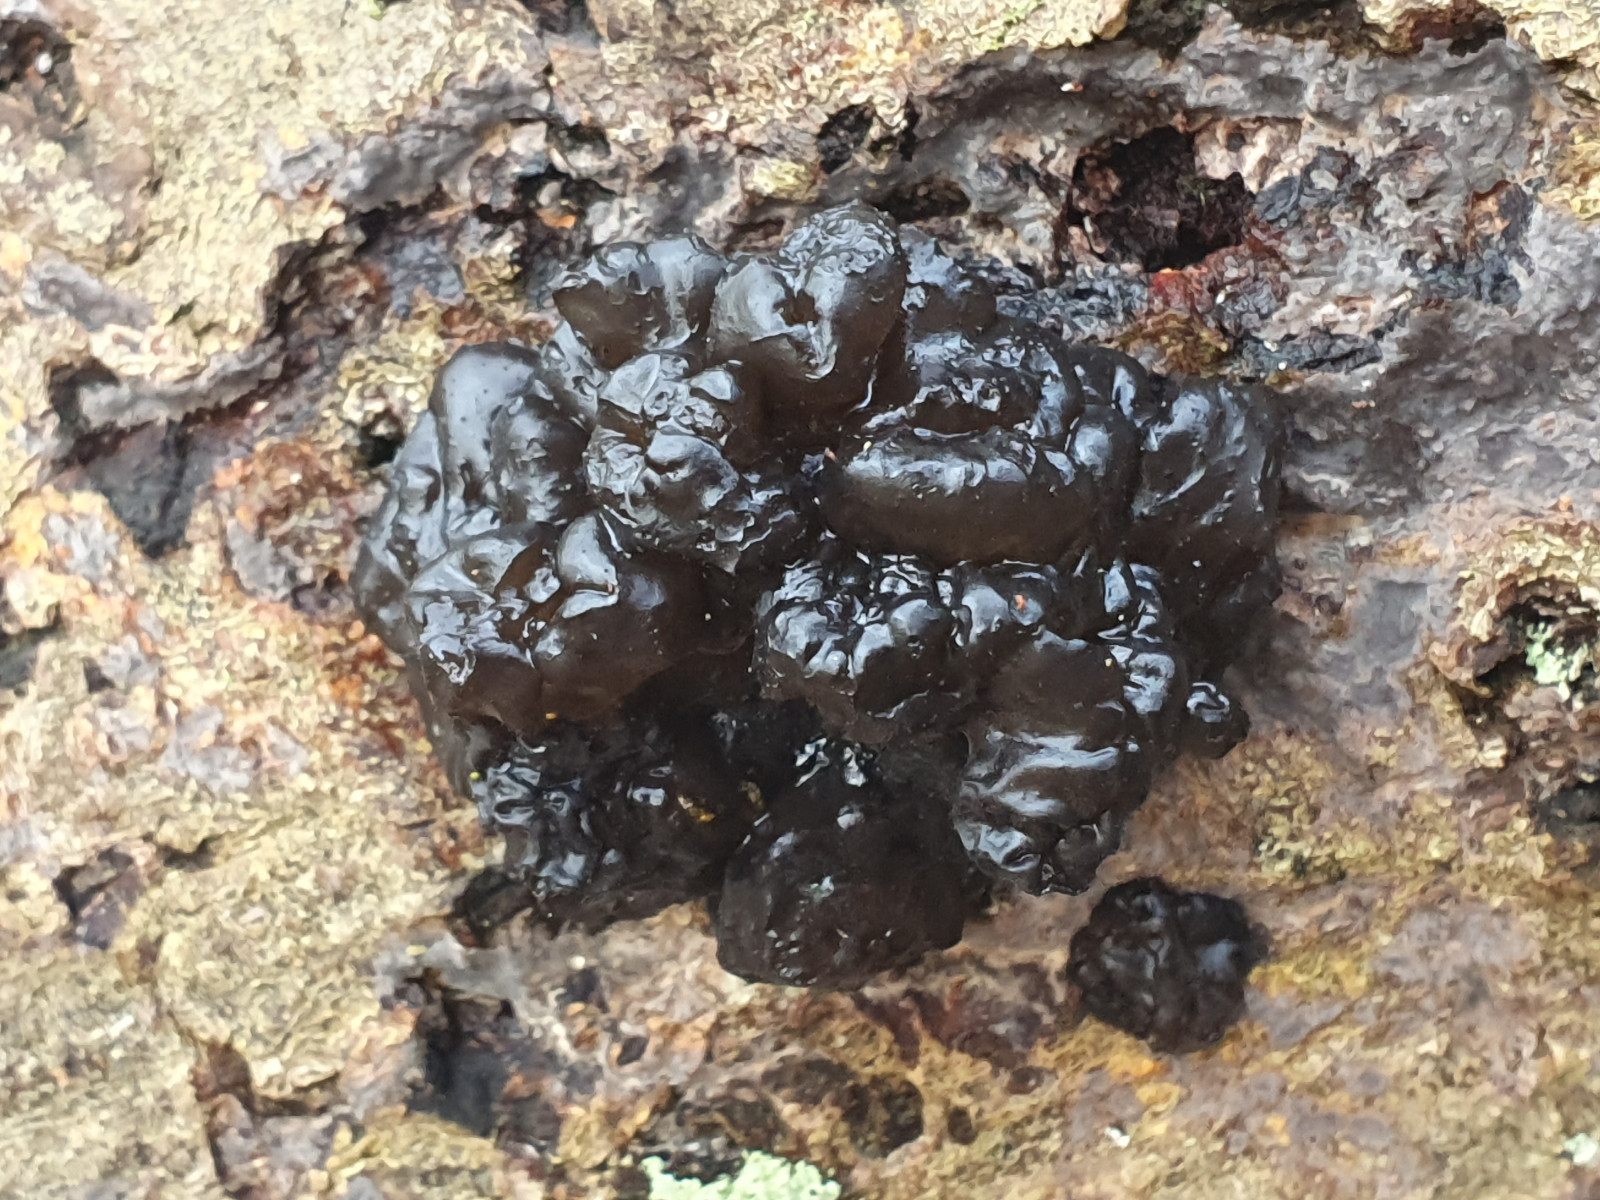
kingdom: Fungi
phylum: Basidiomycota
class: Agaricomycetes
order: Auriculariales
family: Auriculariaceae
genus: Exidia
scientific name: Exidia nigricans
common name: almindelig bævretop
